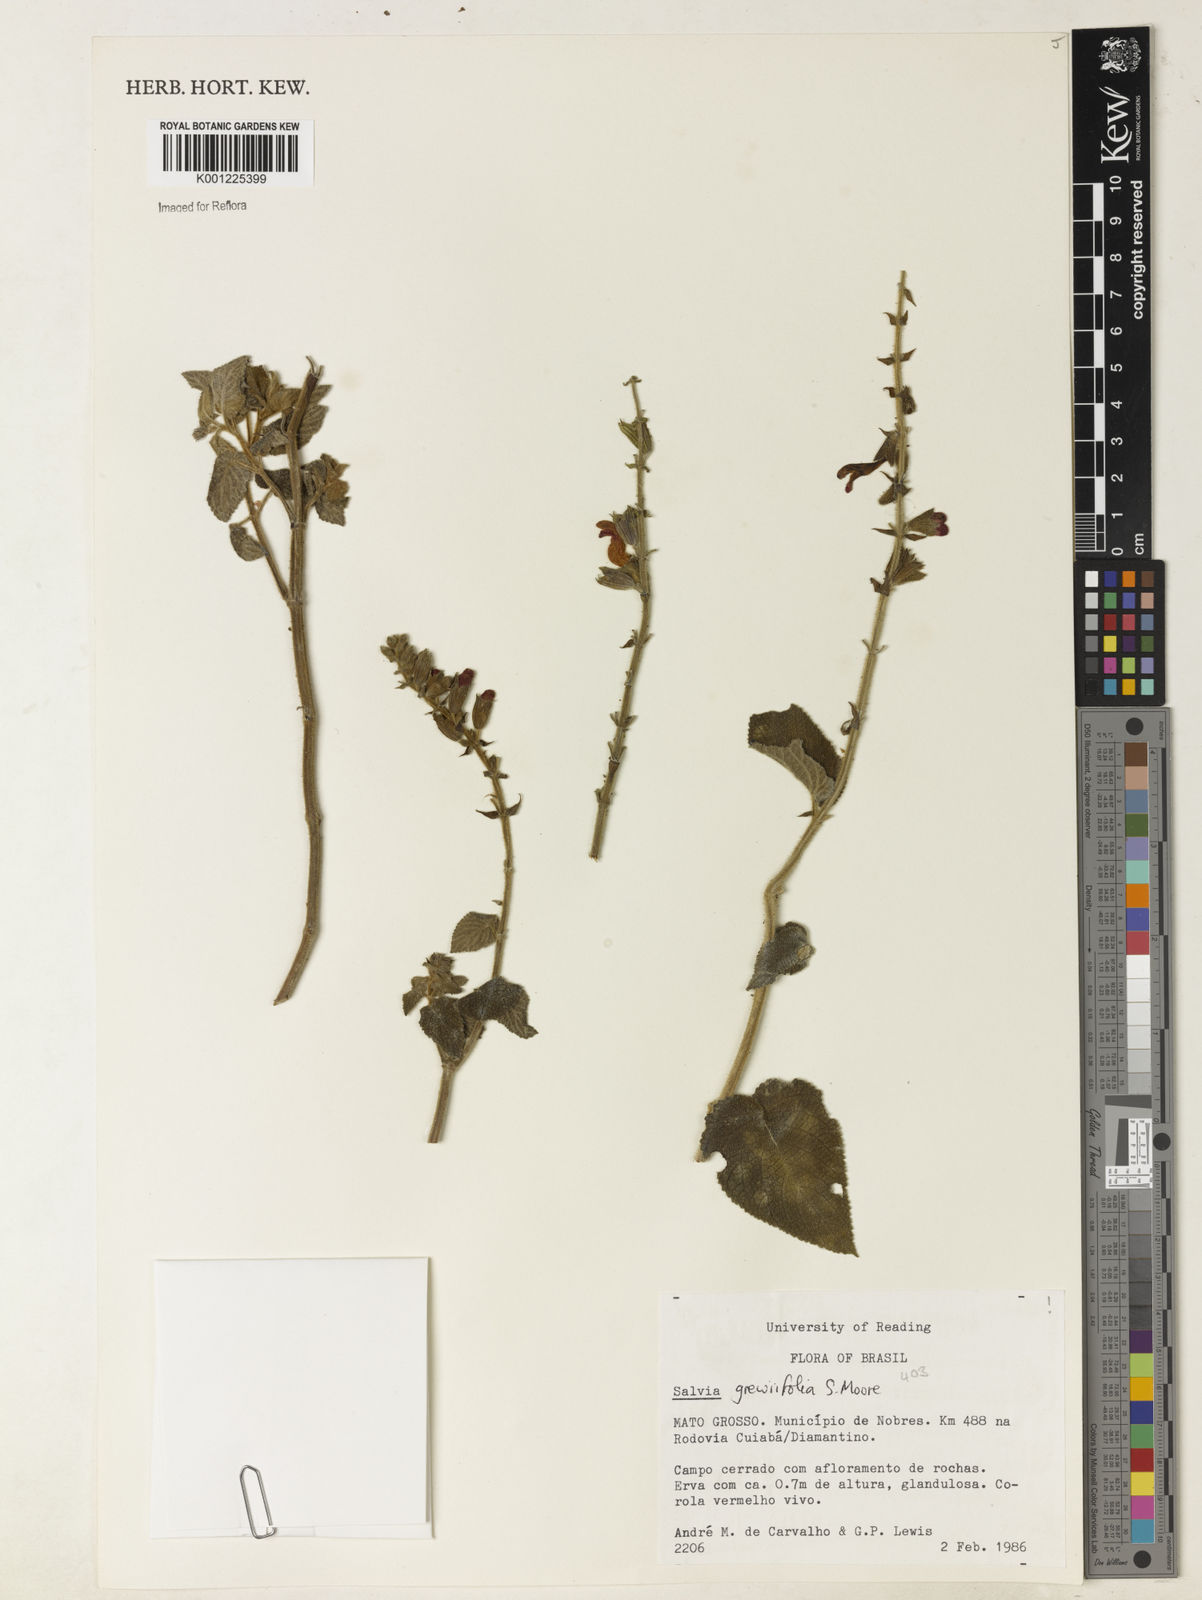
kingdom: Plantae
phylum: Tracheophyta
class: Magnoliopsida
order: Lamiales
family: Lamiaceae
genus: Salvia
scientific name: Salvia grewiifolia
